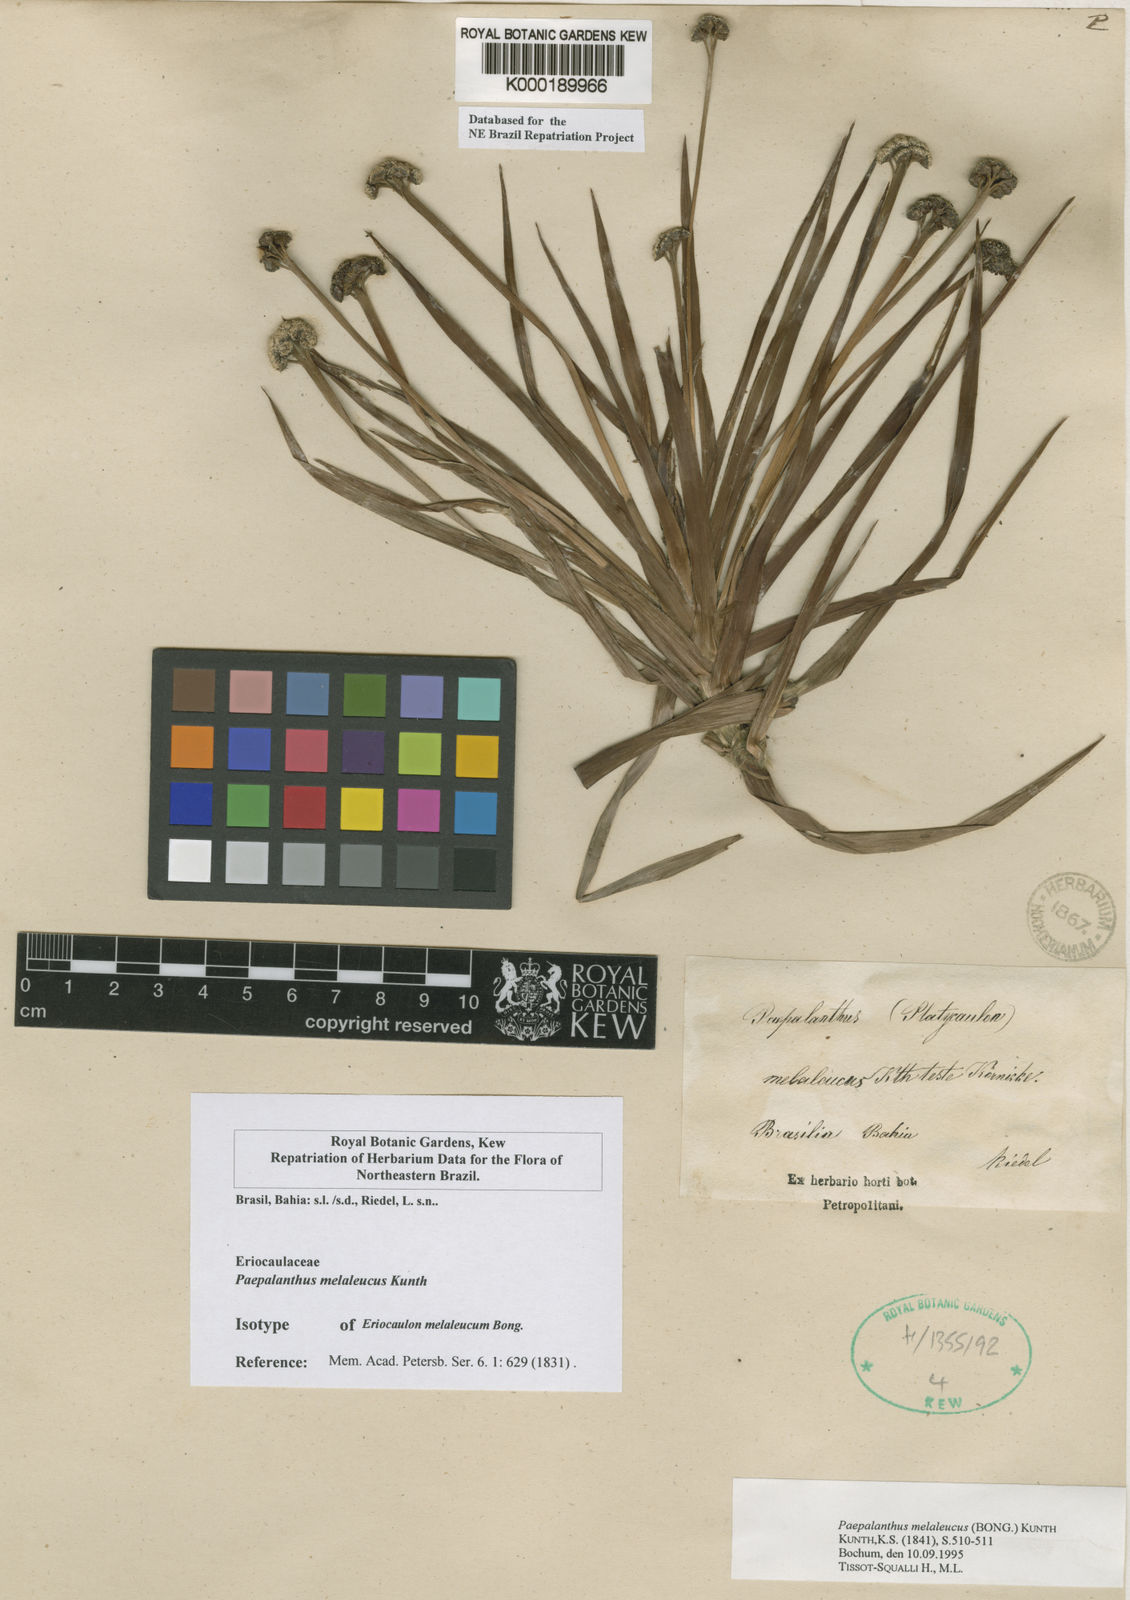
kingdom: Plantae
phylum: Tracheophyta
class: Liliopsida
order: Poales
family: Eriocaulaceae
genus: Paepalanthus
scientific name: Paepalanthus melaleucus
